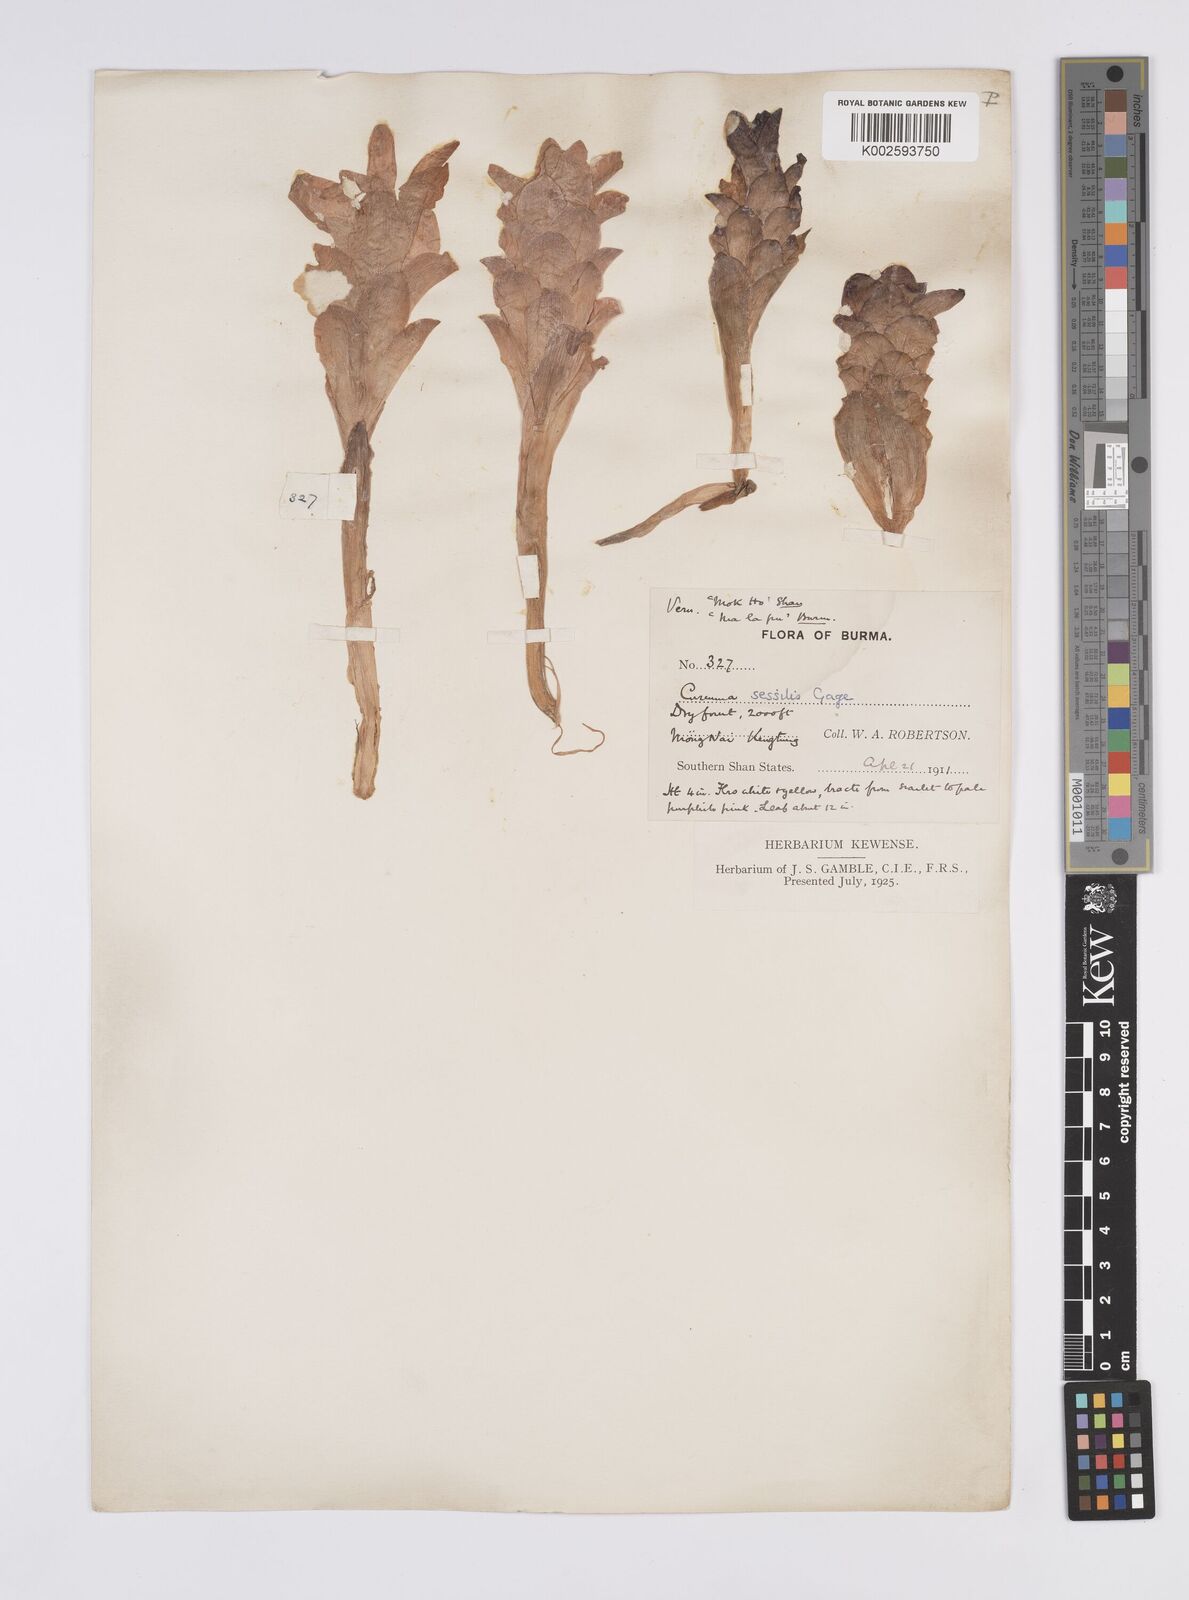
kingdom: Plantae
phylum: Tracheophyta
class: Liliopsida
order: Zingiberales
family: Zingiberaceae
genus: Curcuma
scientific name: Curcuma sessilis
